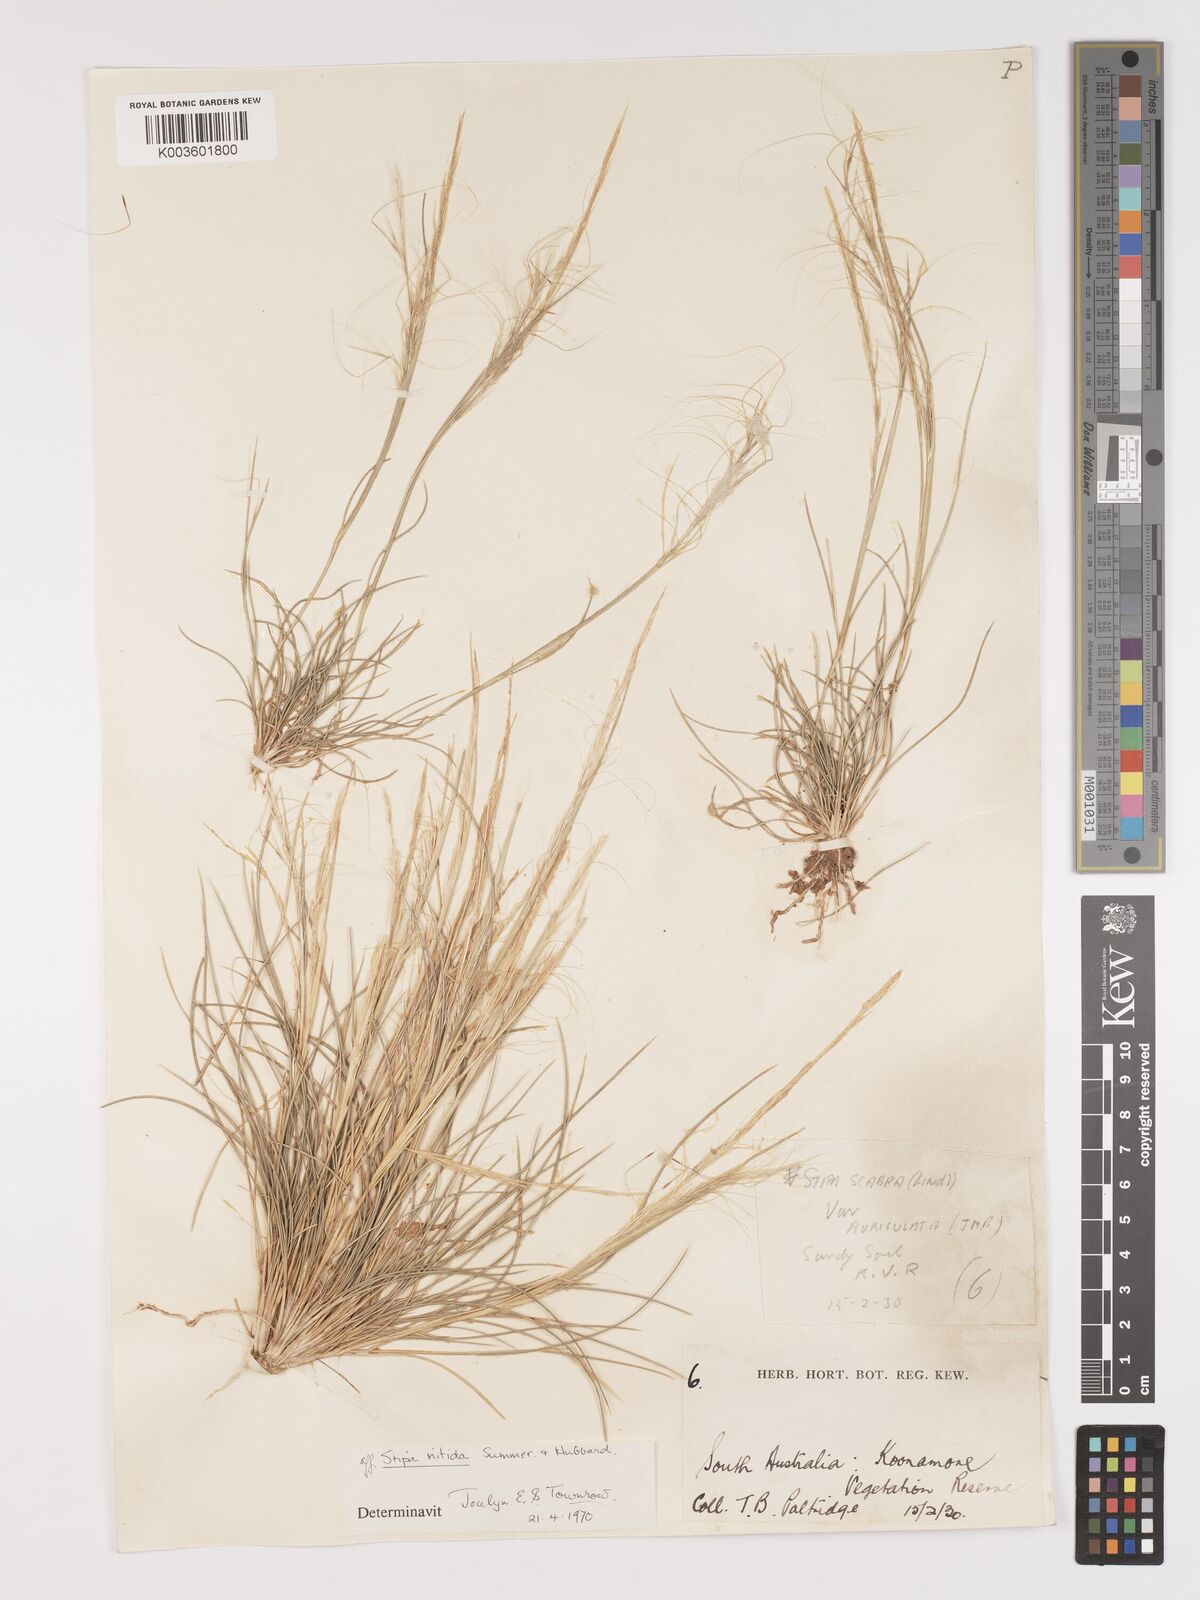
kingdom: Plantae
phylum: Tracheophyta
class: Liliopsida
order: Poales
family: Poaceae
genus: Austrostipa
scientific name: Austrostipa nitida
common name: Balcarra grass
